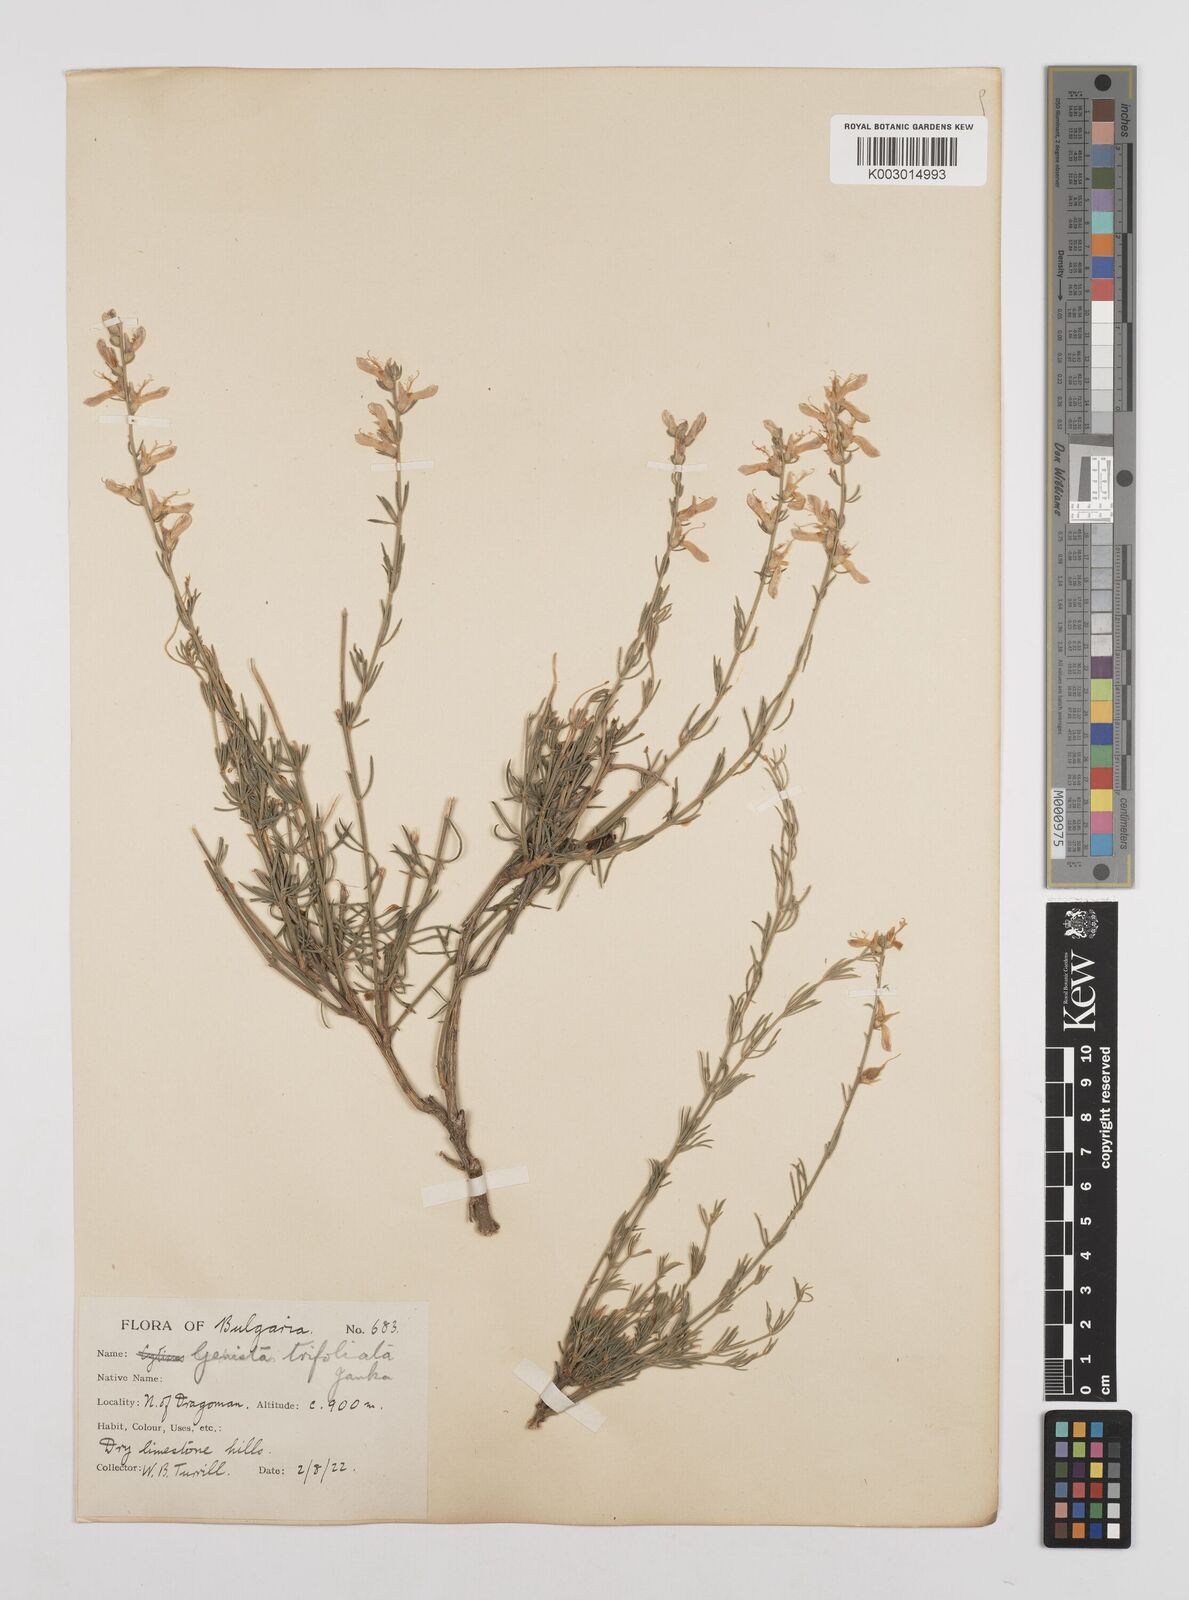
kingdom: Plantae
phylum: Tracheophyta
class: Magnoliopsida
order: Fabales
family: Fabaceae
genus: Genista
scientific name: Genista sessilifolia
